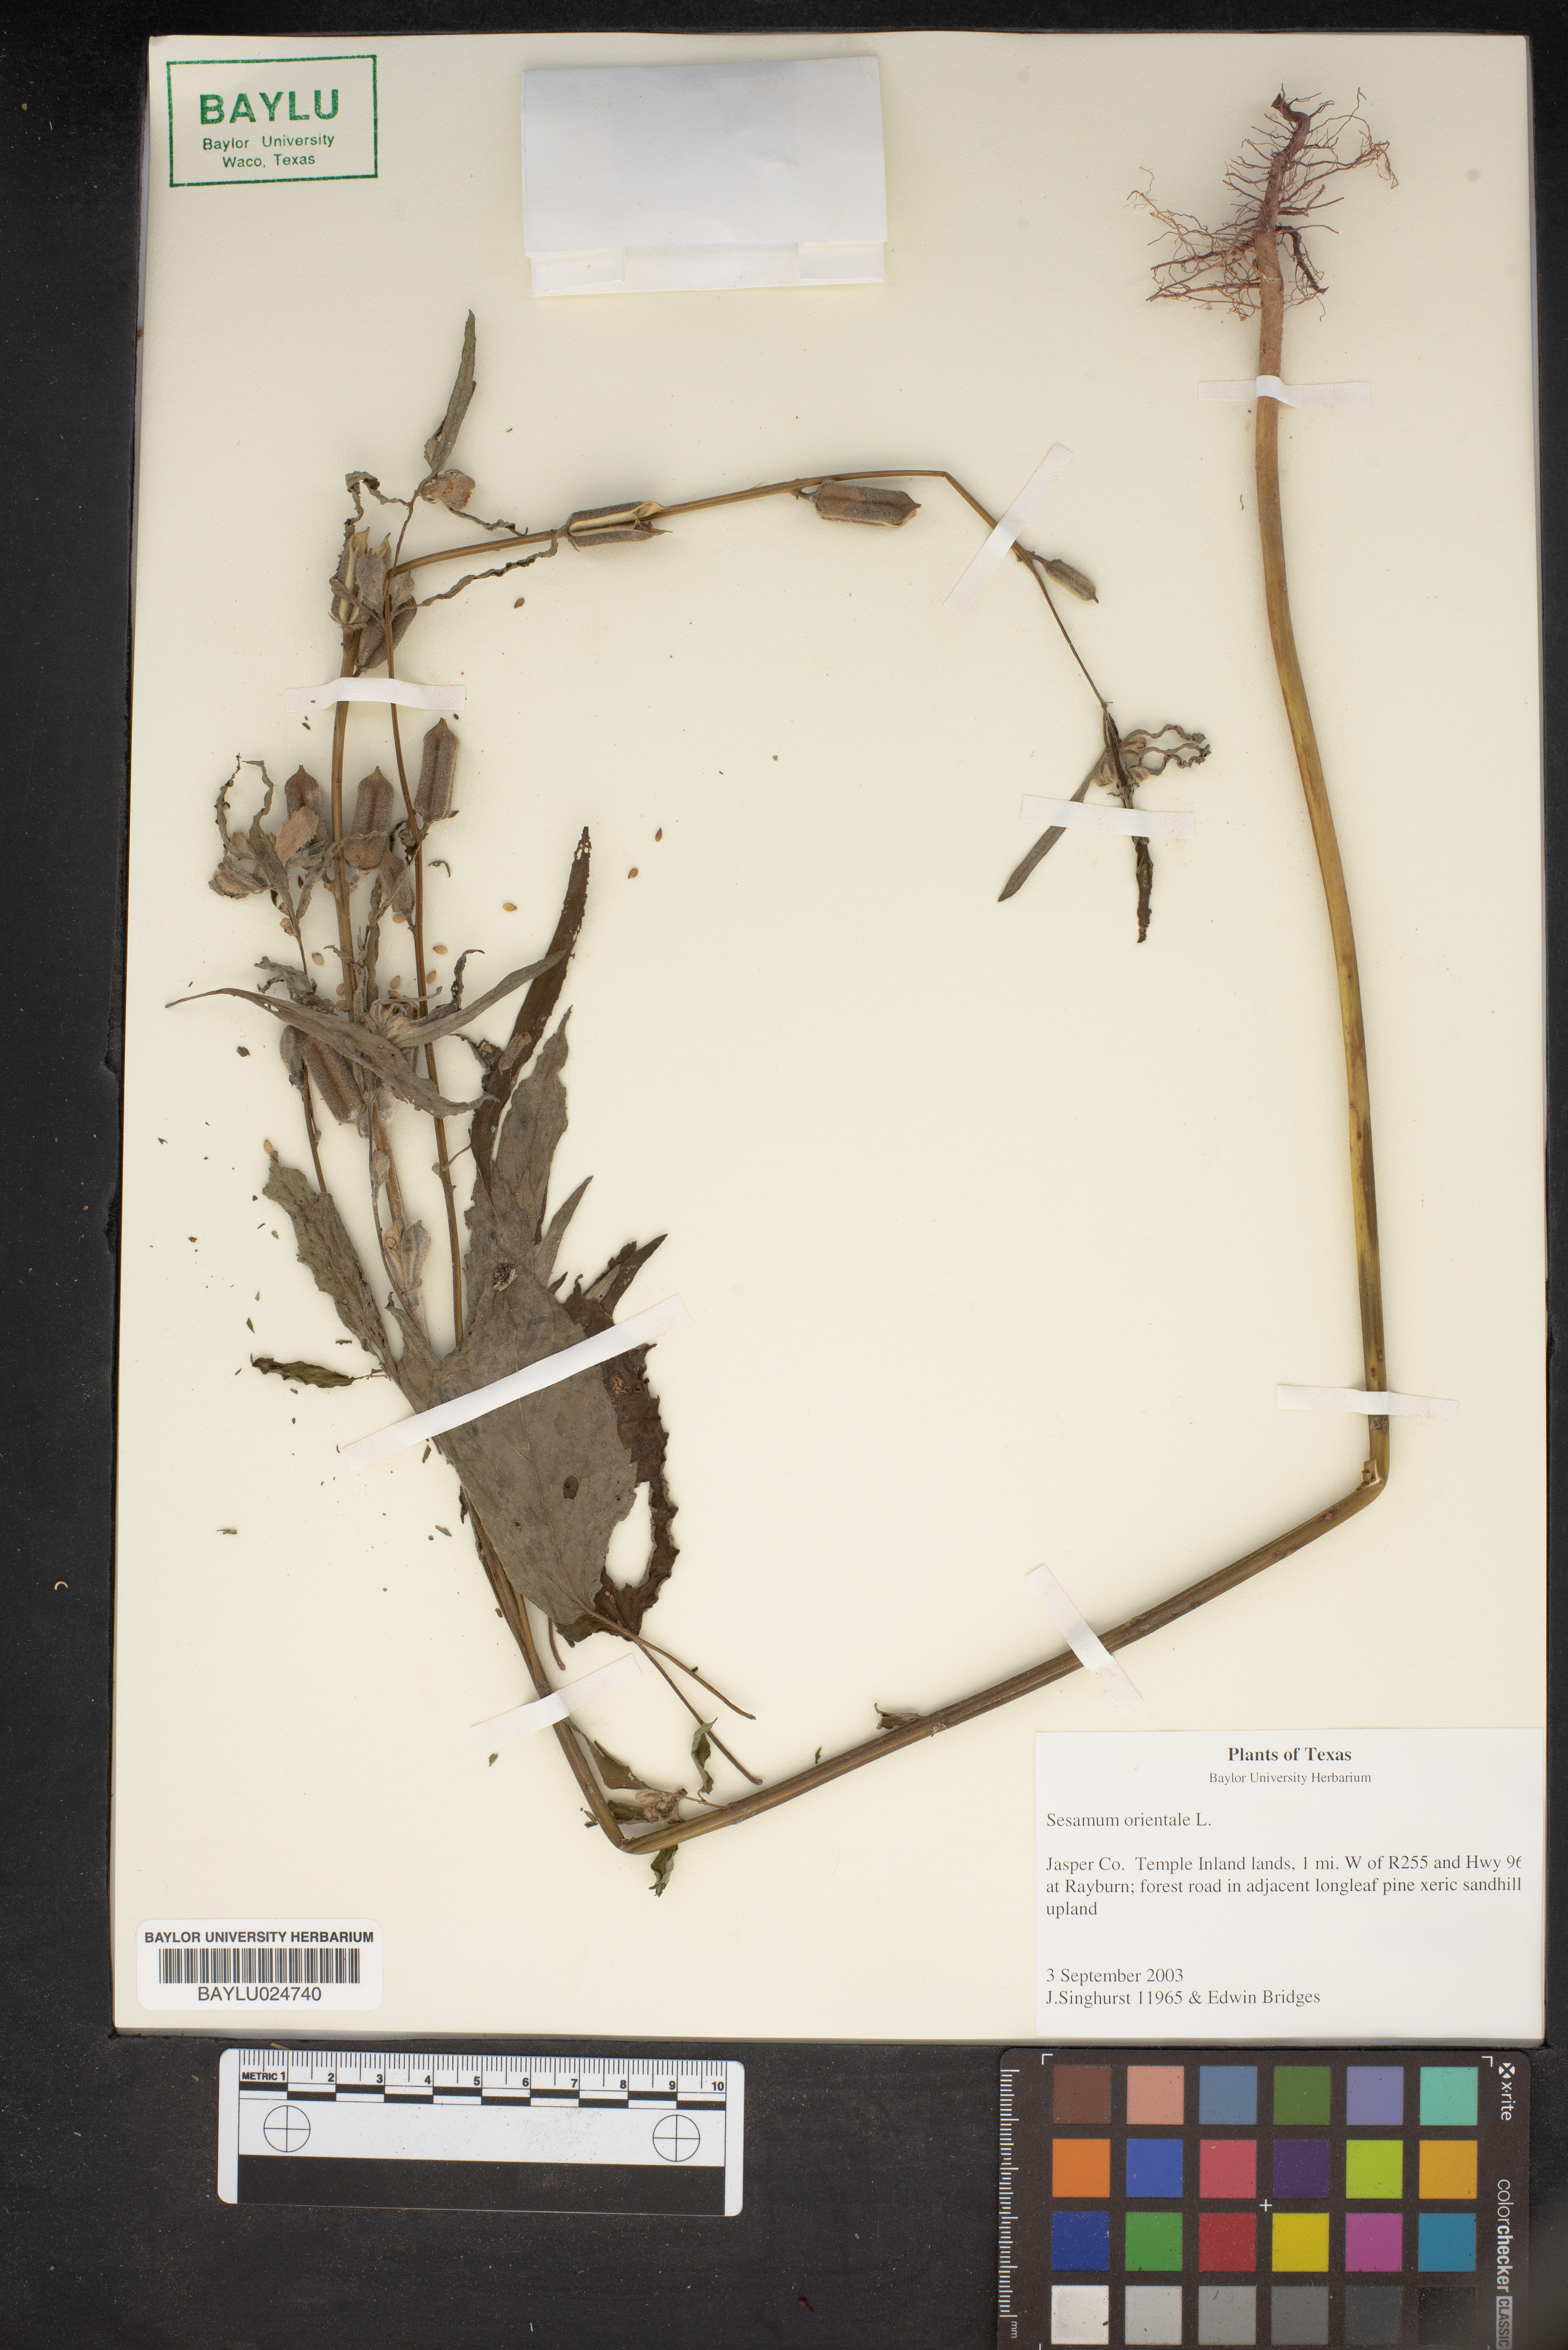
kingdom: Plantae
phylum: Tracheophyta
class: Magnoliopsida
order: Lamiales
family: Pedaliaceae
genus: Sesamum
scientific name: Sesamum orientale
